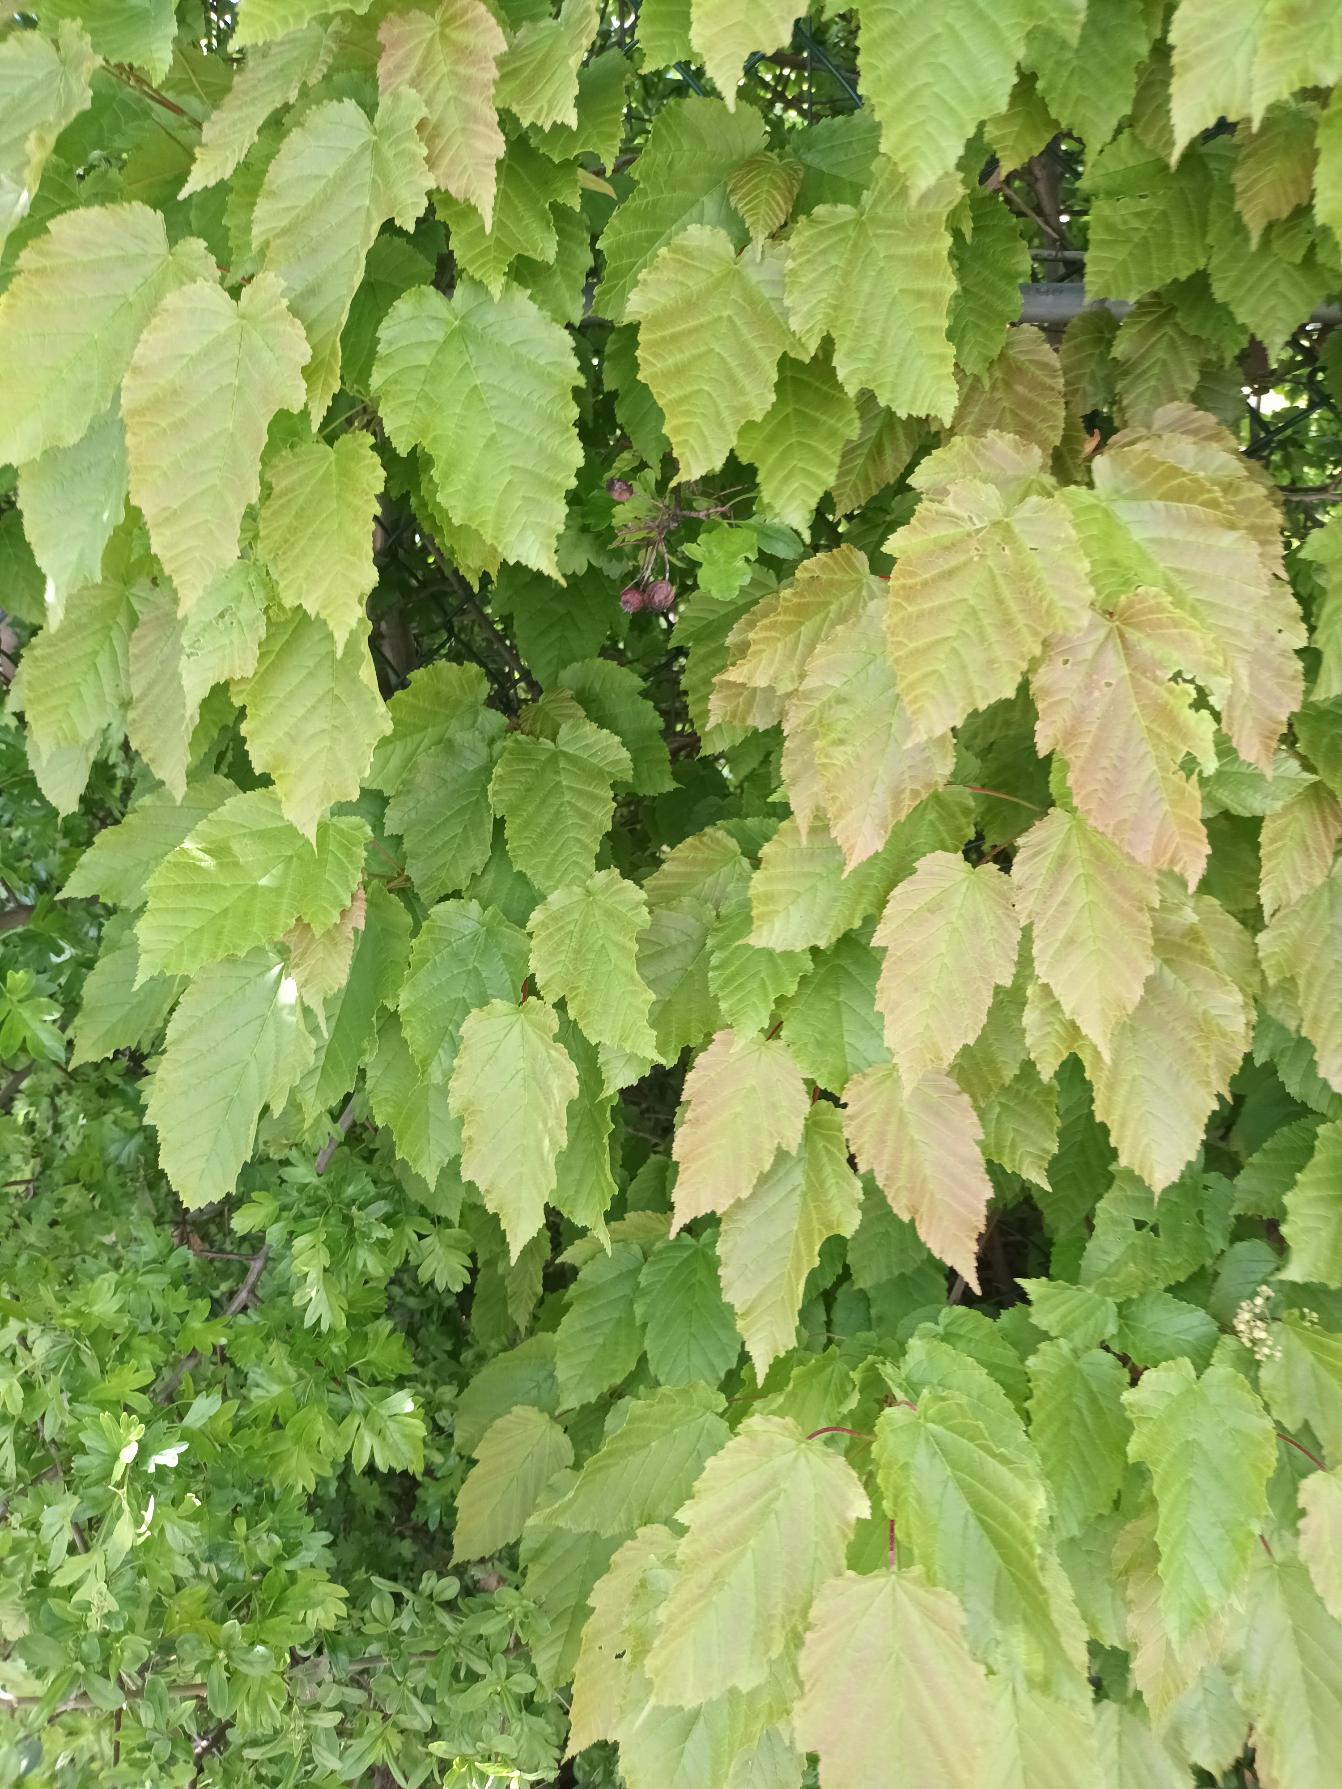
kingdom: Plantae
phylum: Tracheophyta
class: Magnoliopsida
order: Sapindales
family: Sapindaceae
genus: Acer
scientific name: Acer tataricum
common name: Russisk løn
